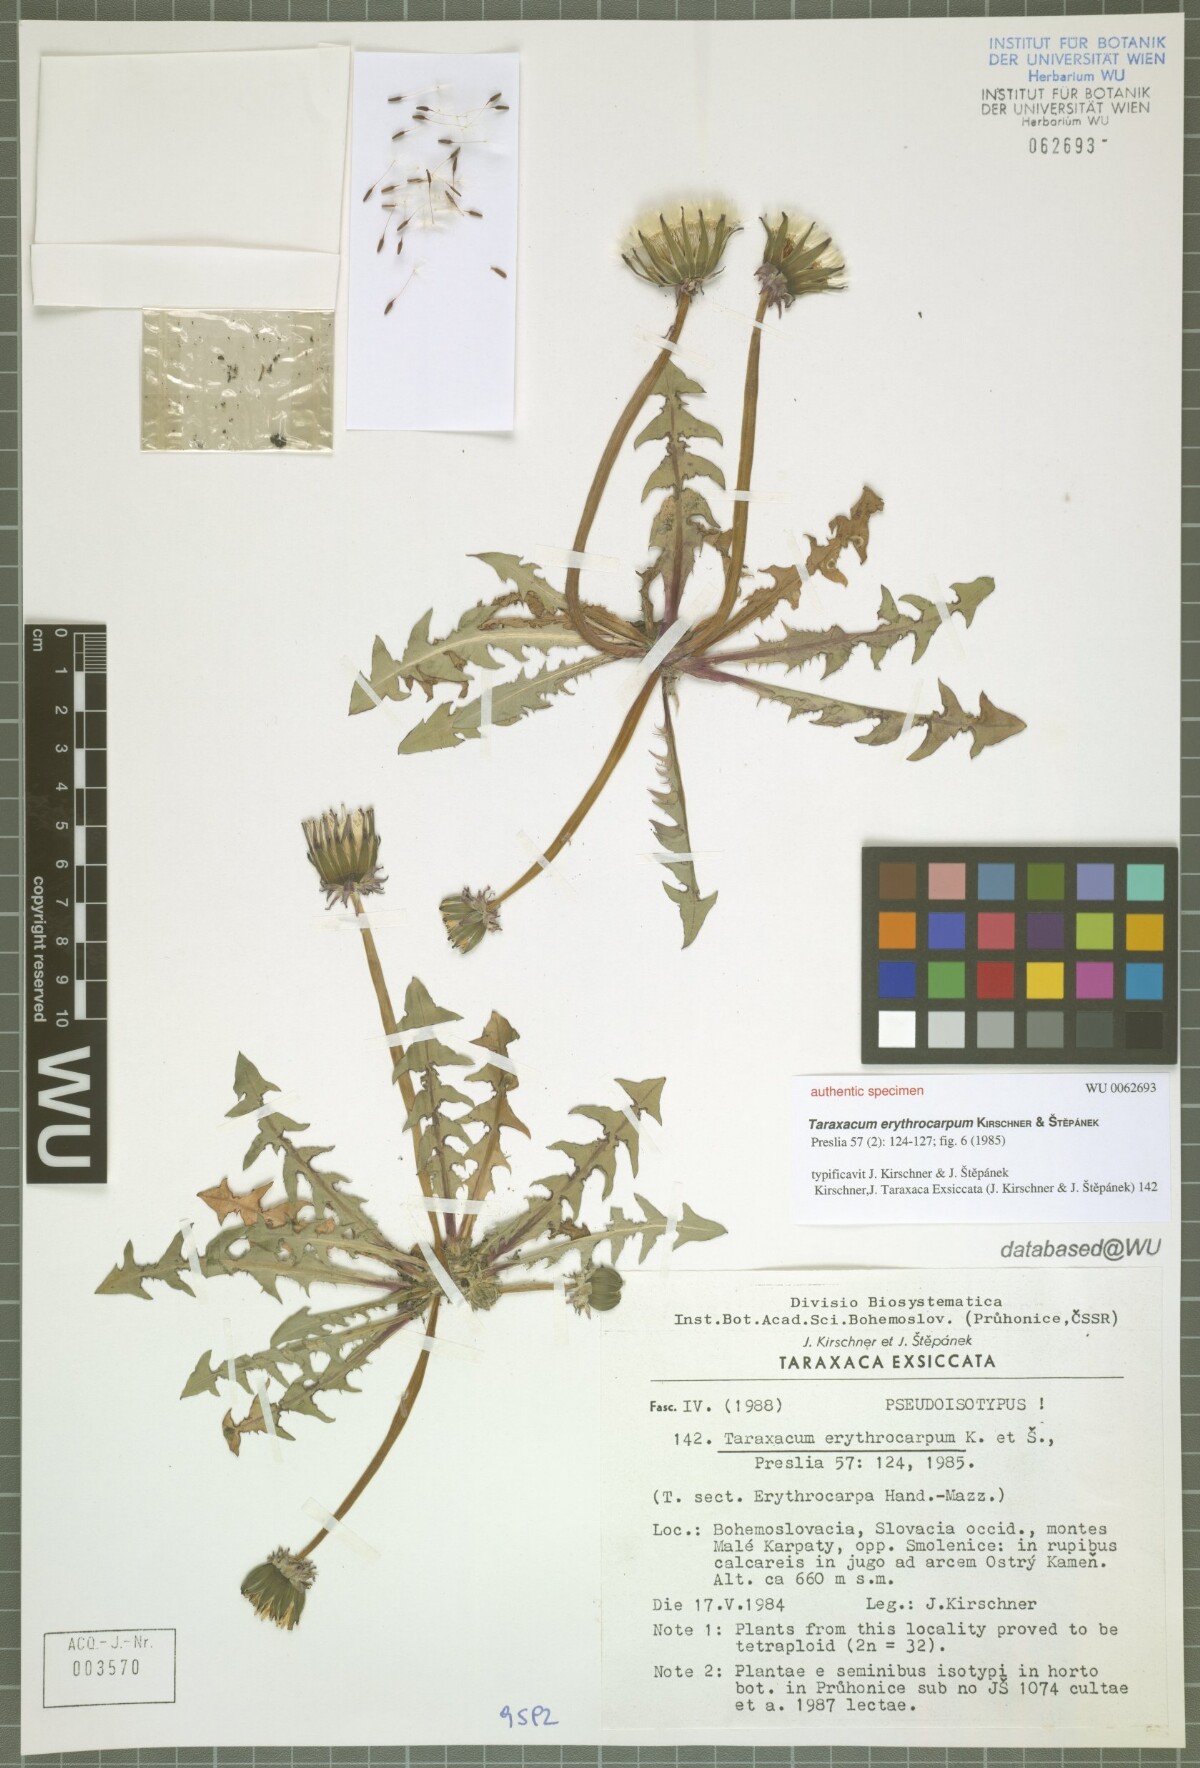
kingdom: Plantae
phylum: Tracheophyta
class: Magnoliopsida
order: Asterales
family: Asteraceae
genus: Taraxacum
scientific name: Taraxacum erythrocarpum
